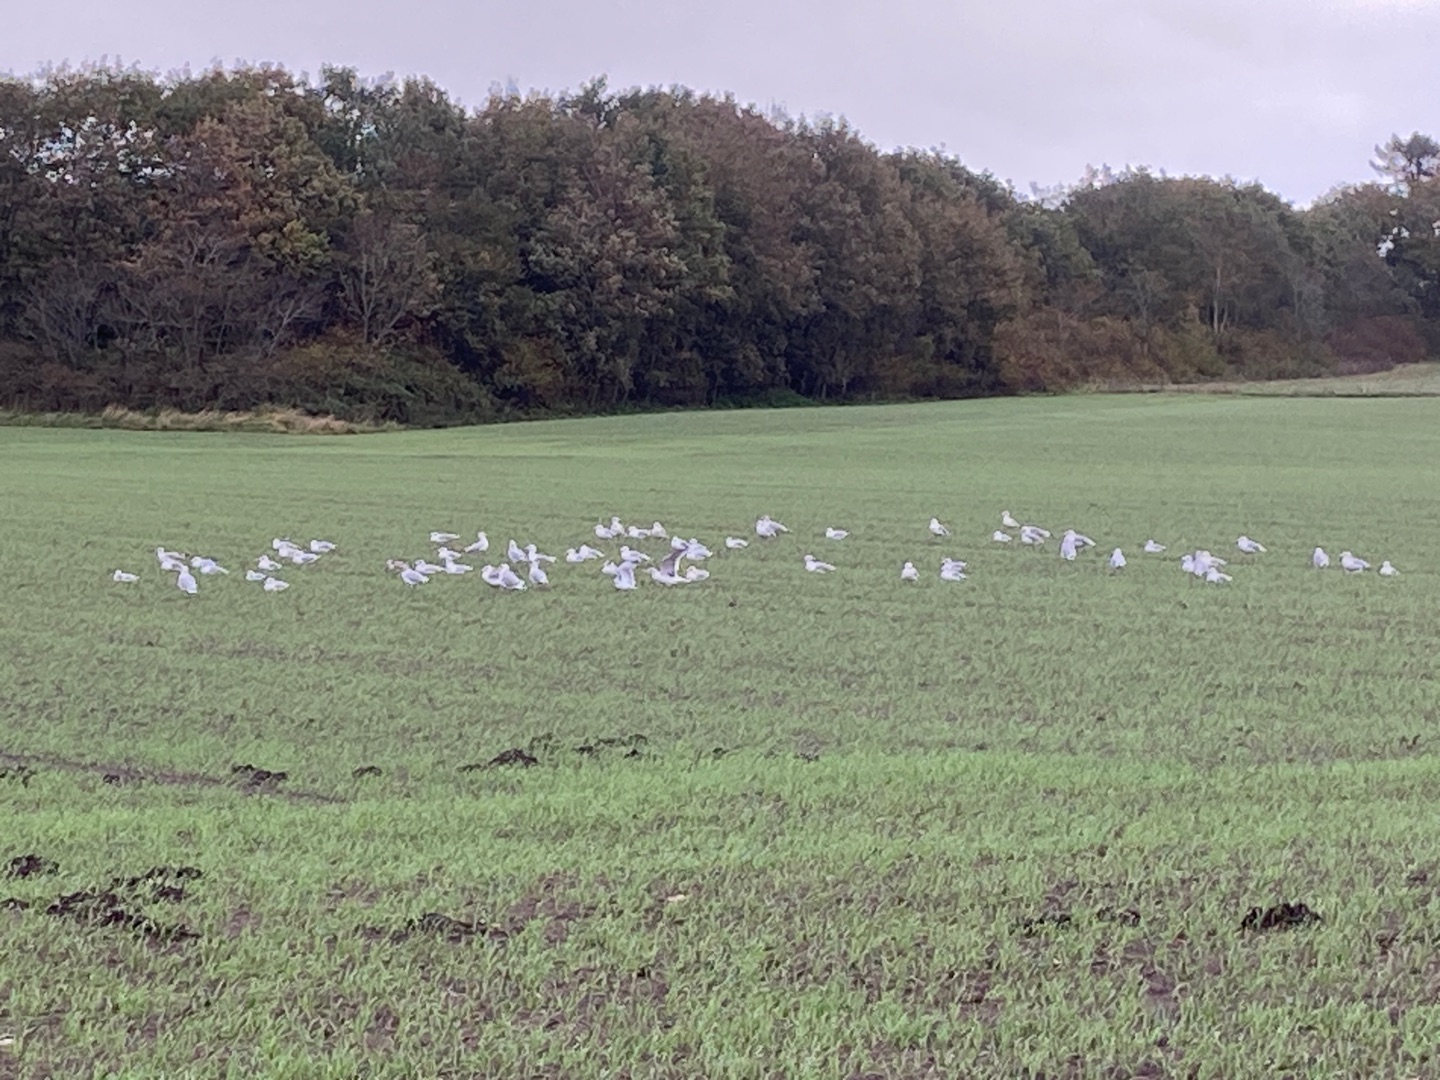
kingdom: Animalia
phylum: Chordata
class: Aves
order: Charadriiformes
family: Laridae
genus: Larus
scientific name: Larus canus
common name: Stormmåge
